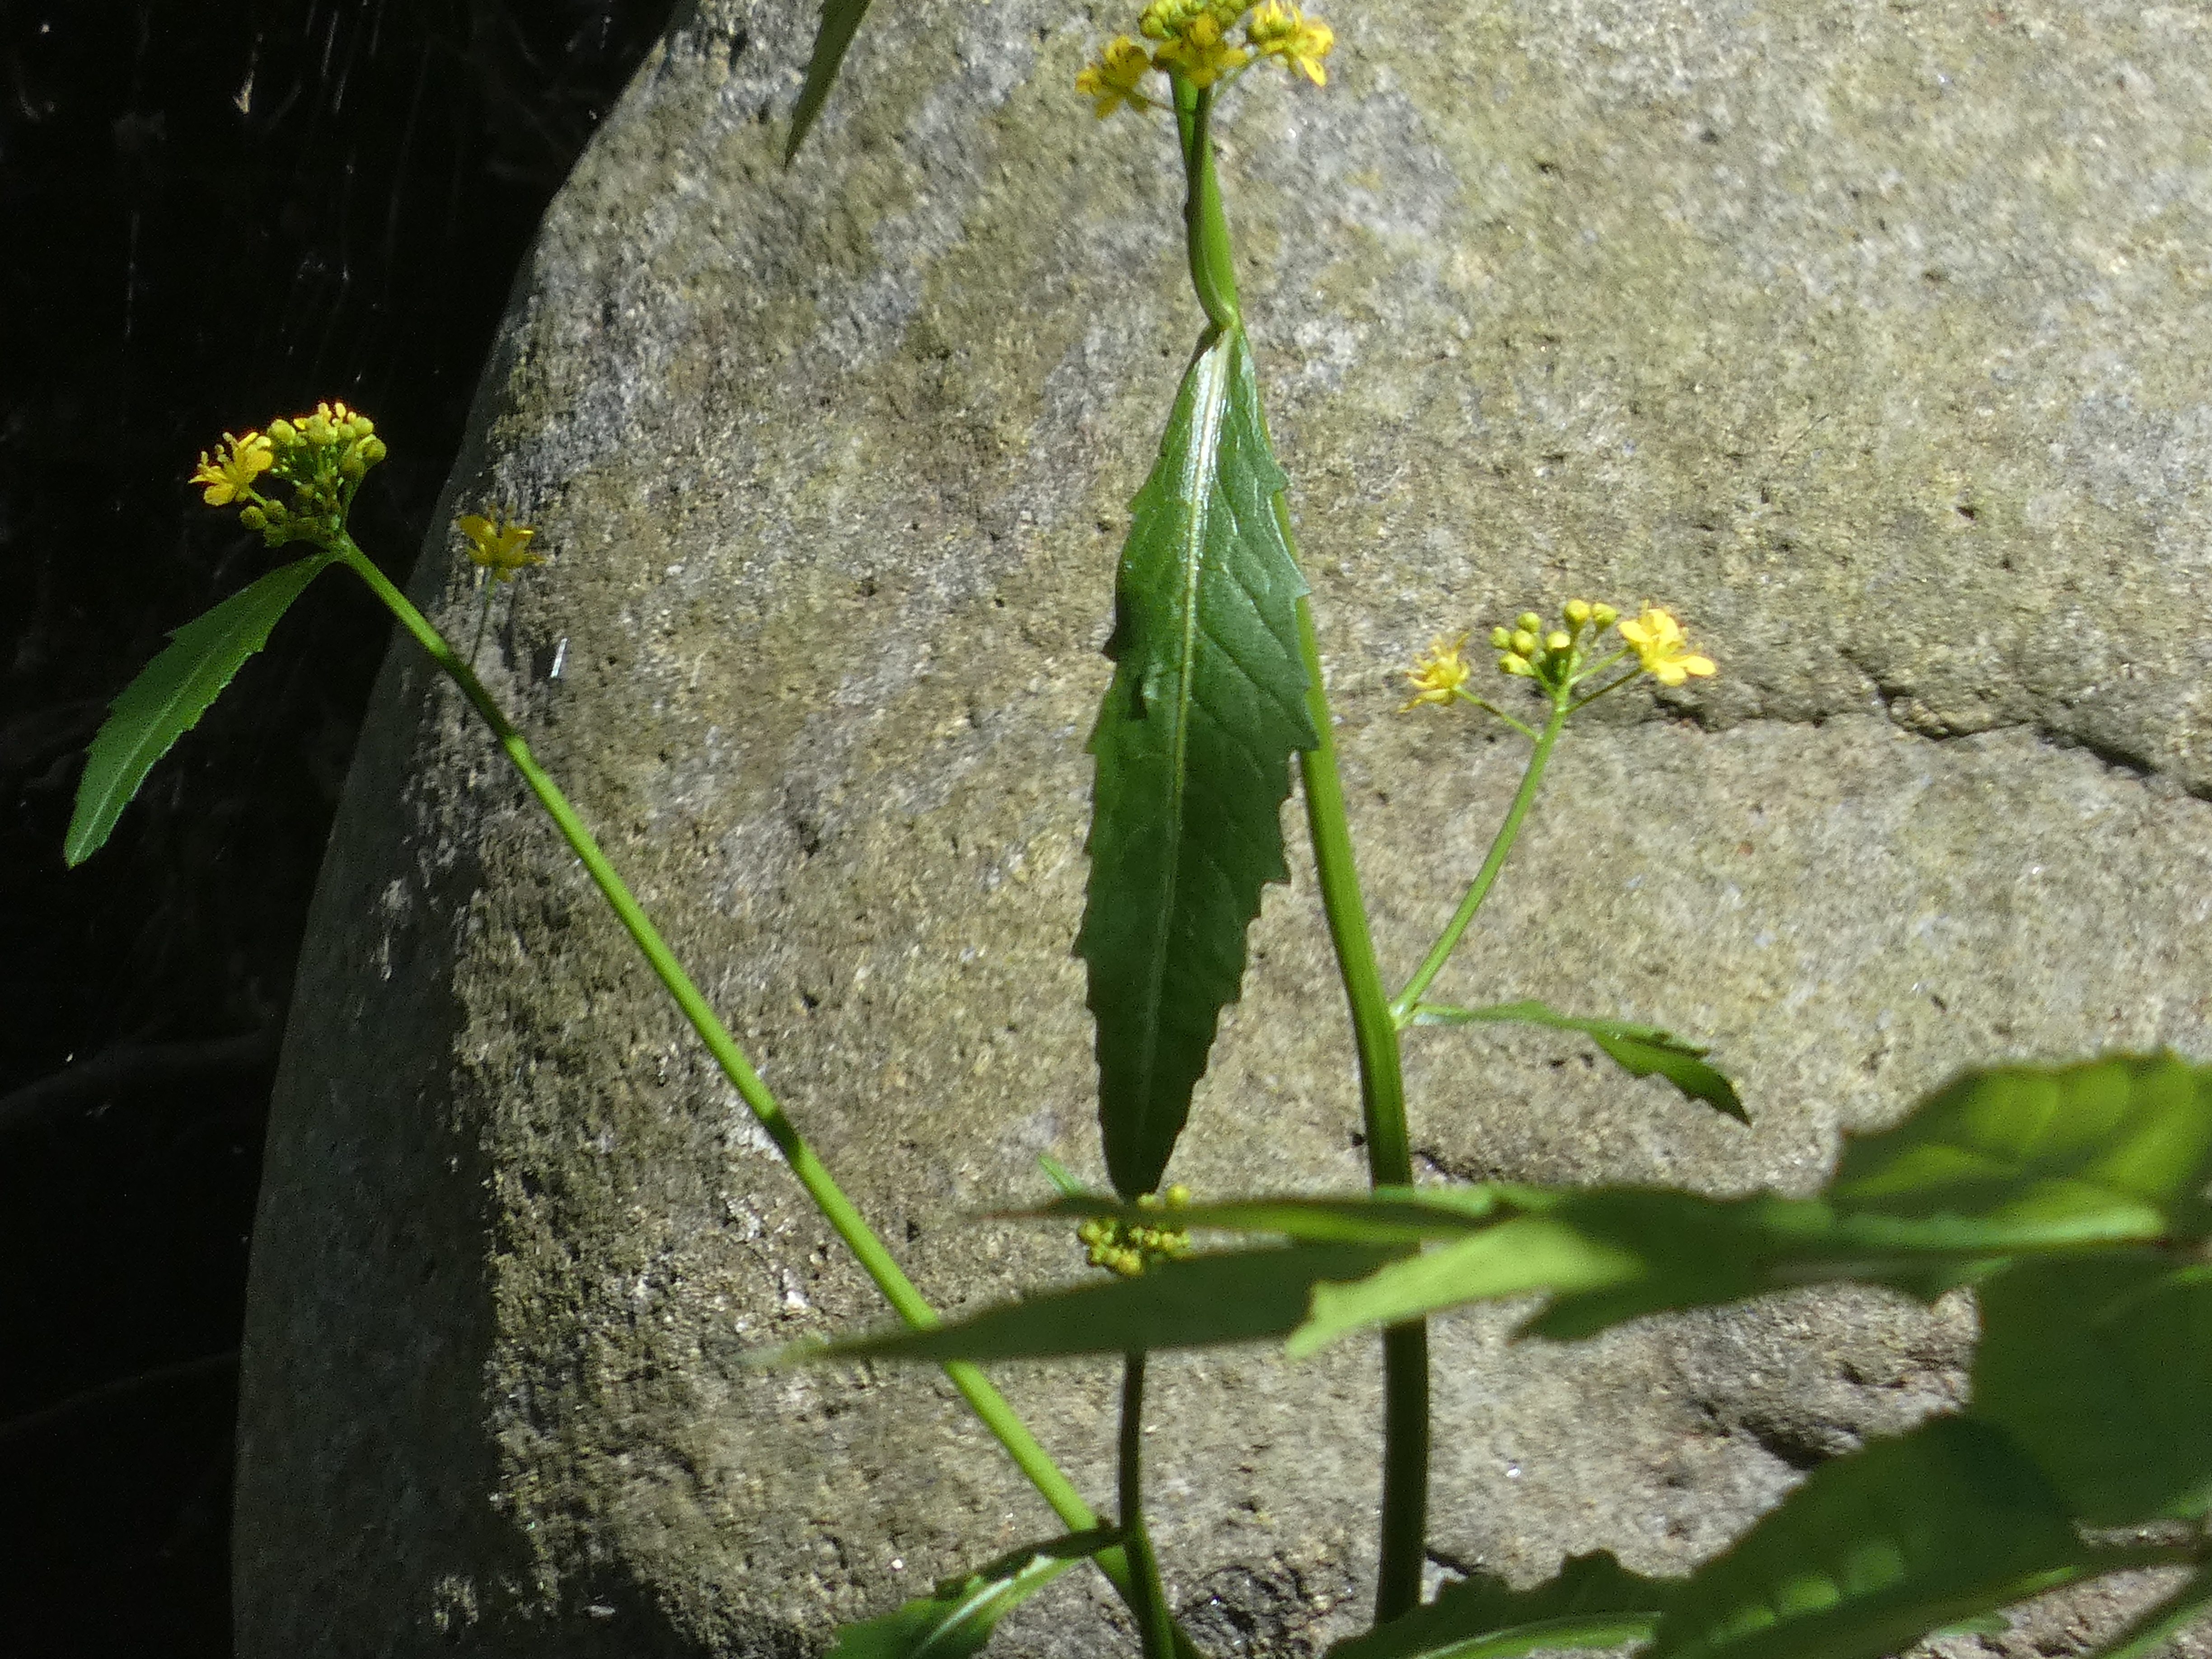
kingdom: Plantae
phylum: Tracheophyta
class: Magnoliopsida
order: Brassicales
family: Brassicaceae
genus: Rorippa
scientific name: Rorippa amphibia
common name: Vandpeberrod
